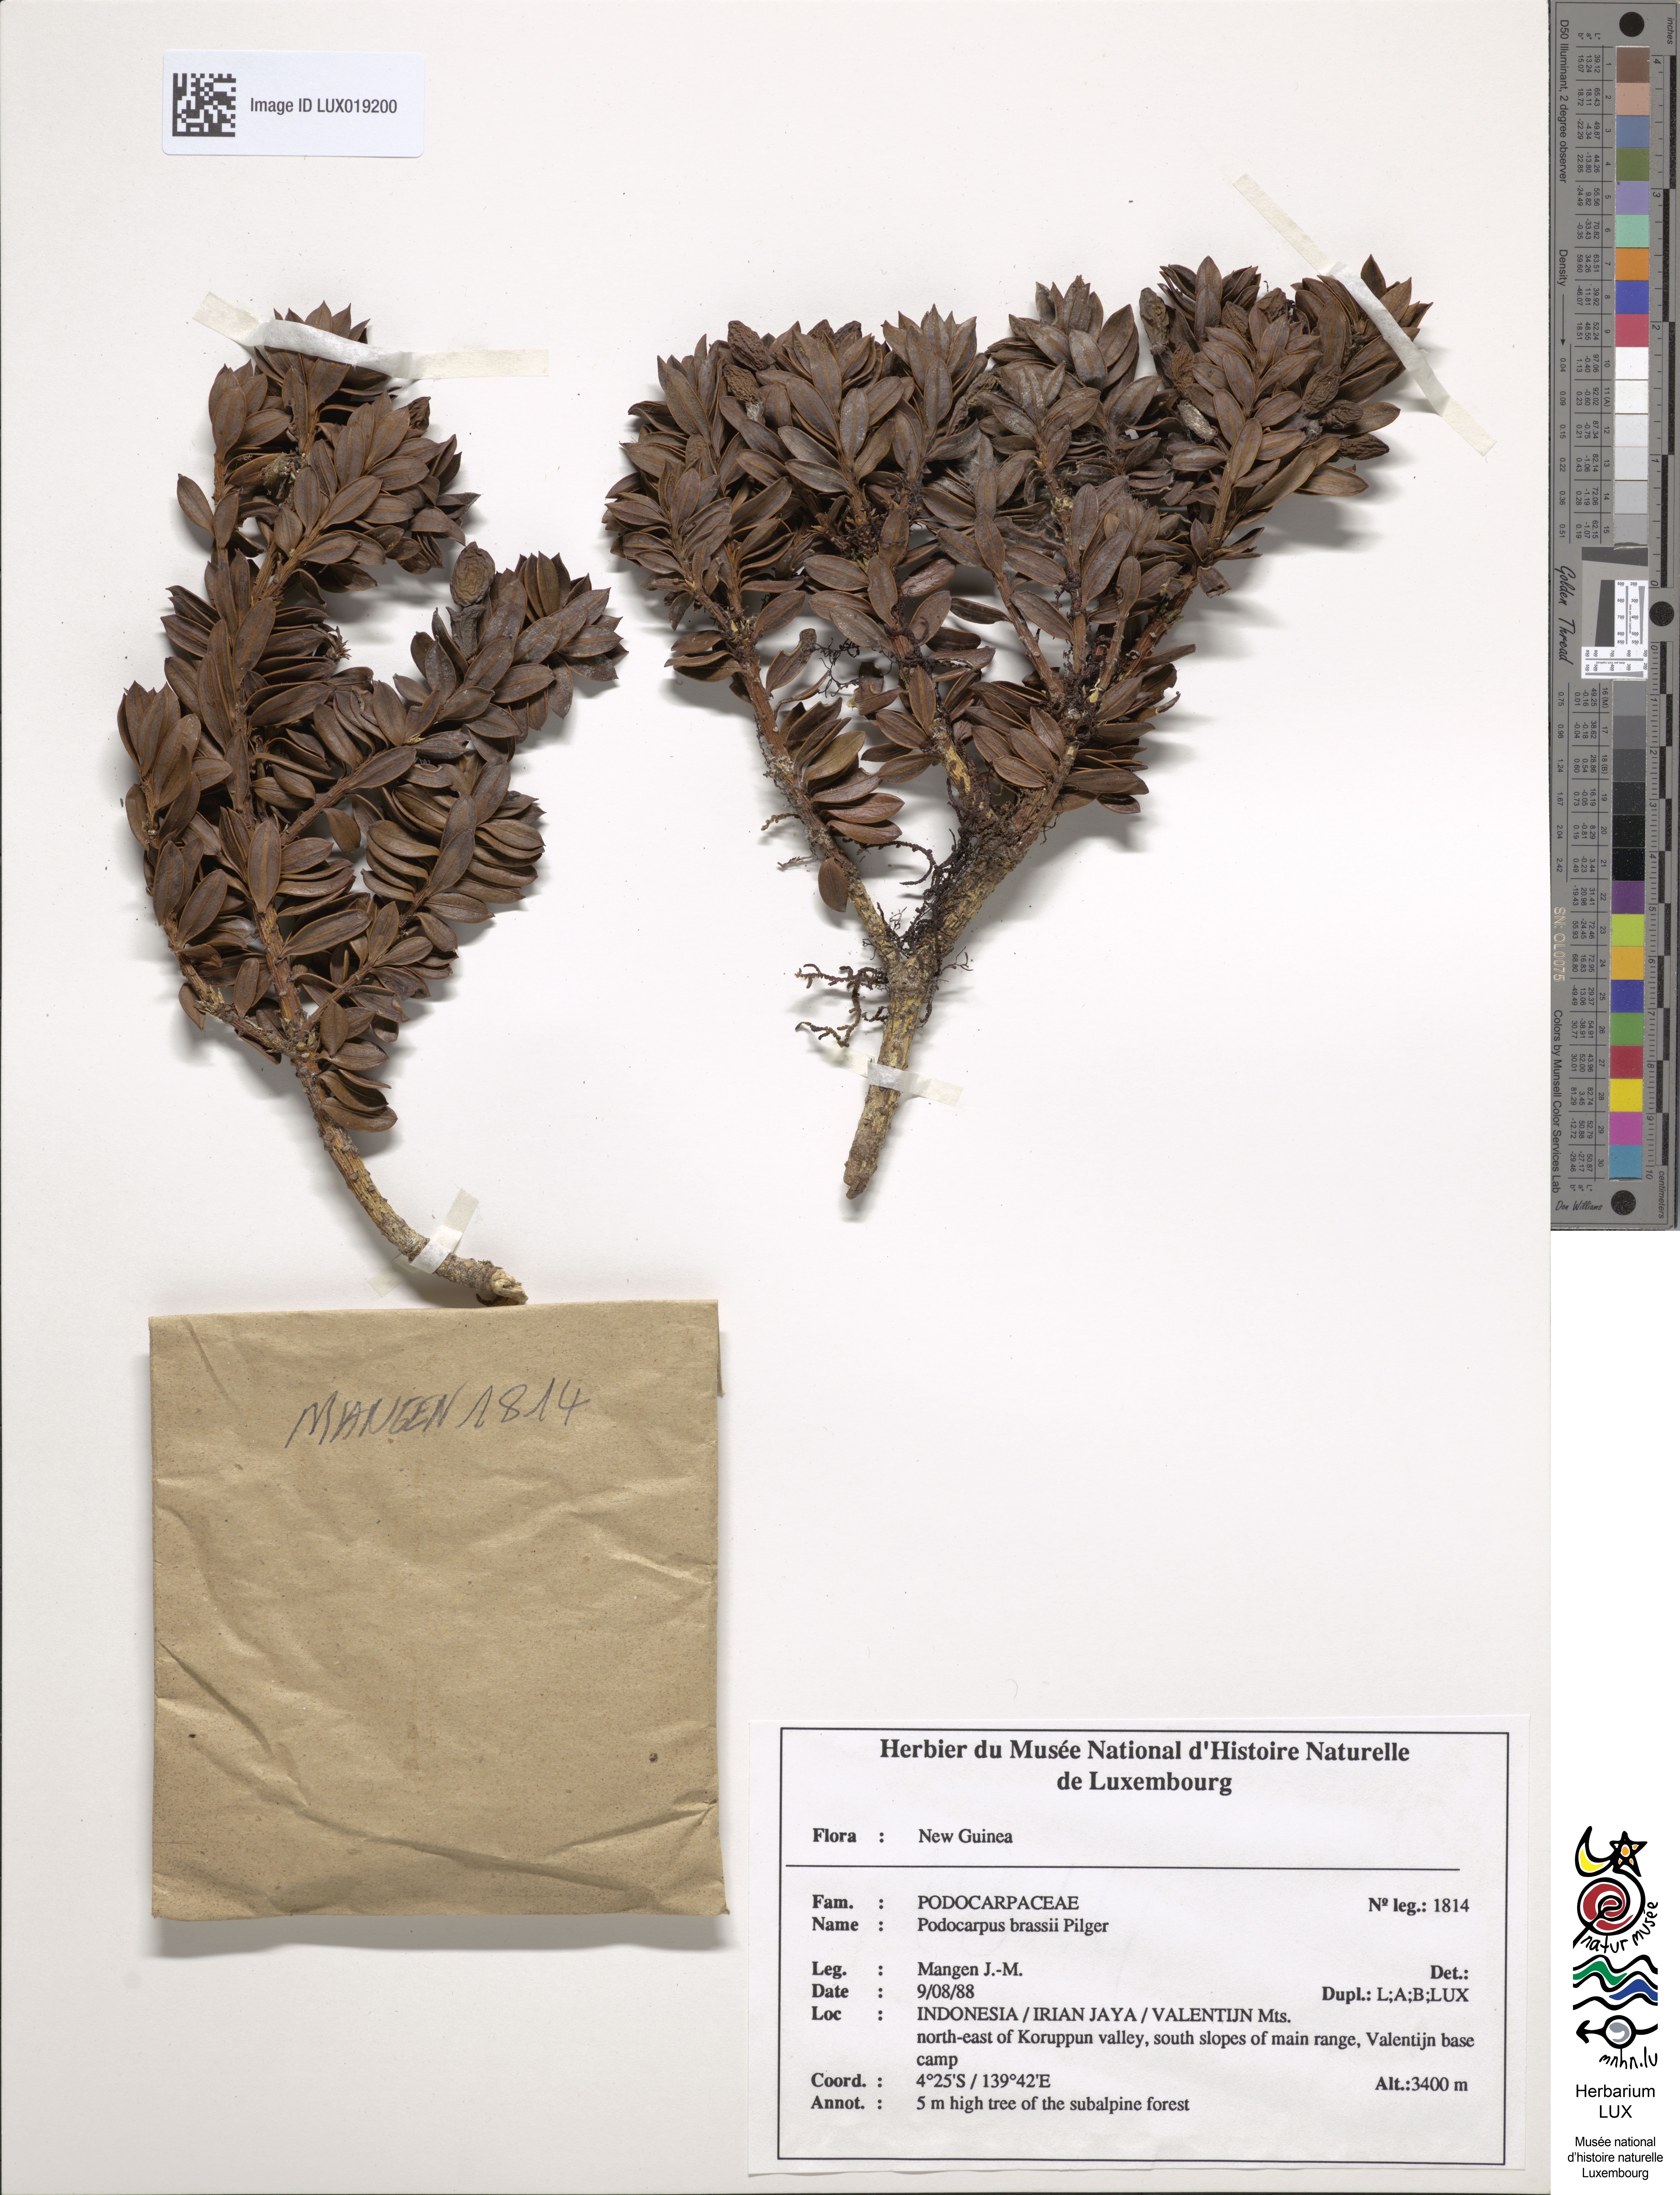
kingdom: Plantae
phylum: Tracheophyta
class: Pinopsida
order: Pinales
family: Podocarpaceae
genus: Podocarpus
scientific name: Podocarpus brassii
